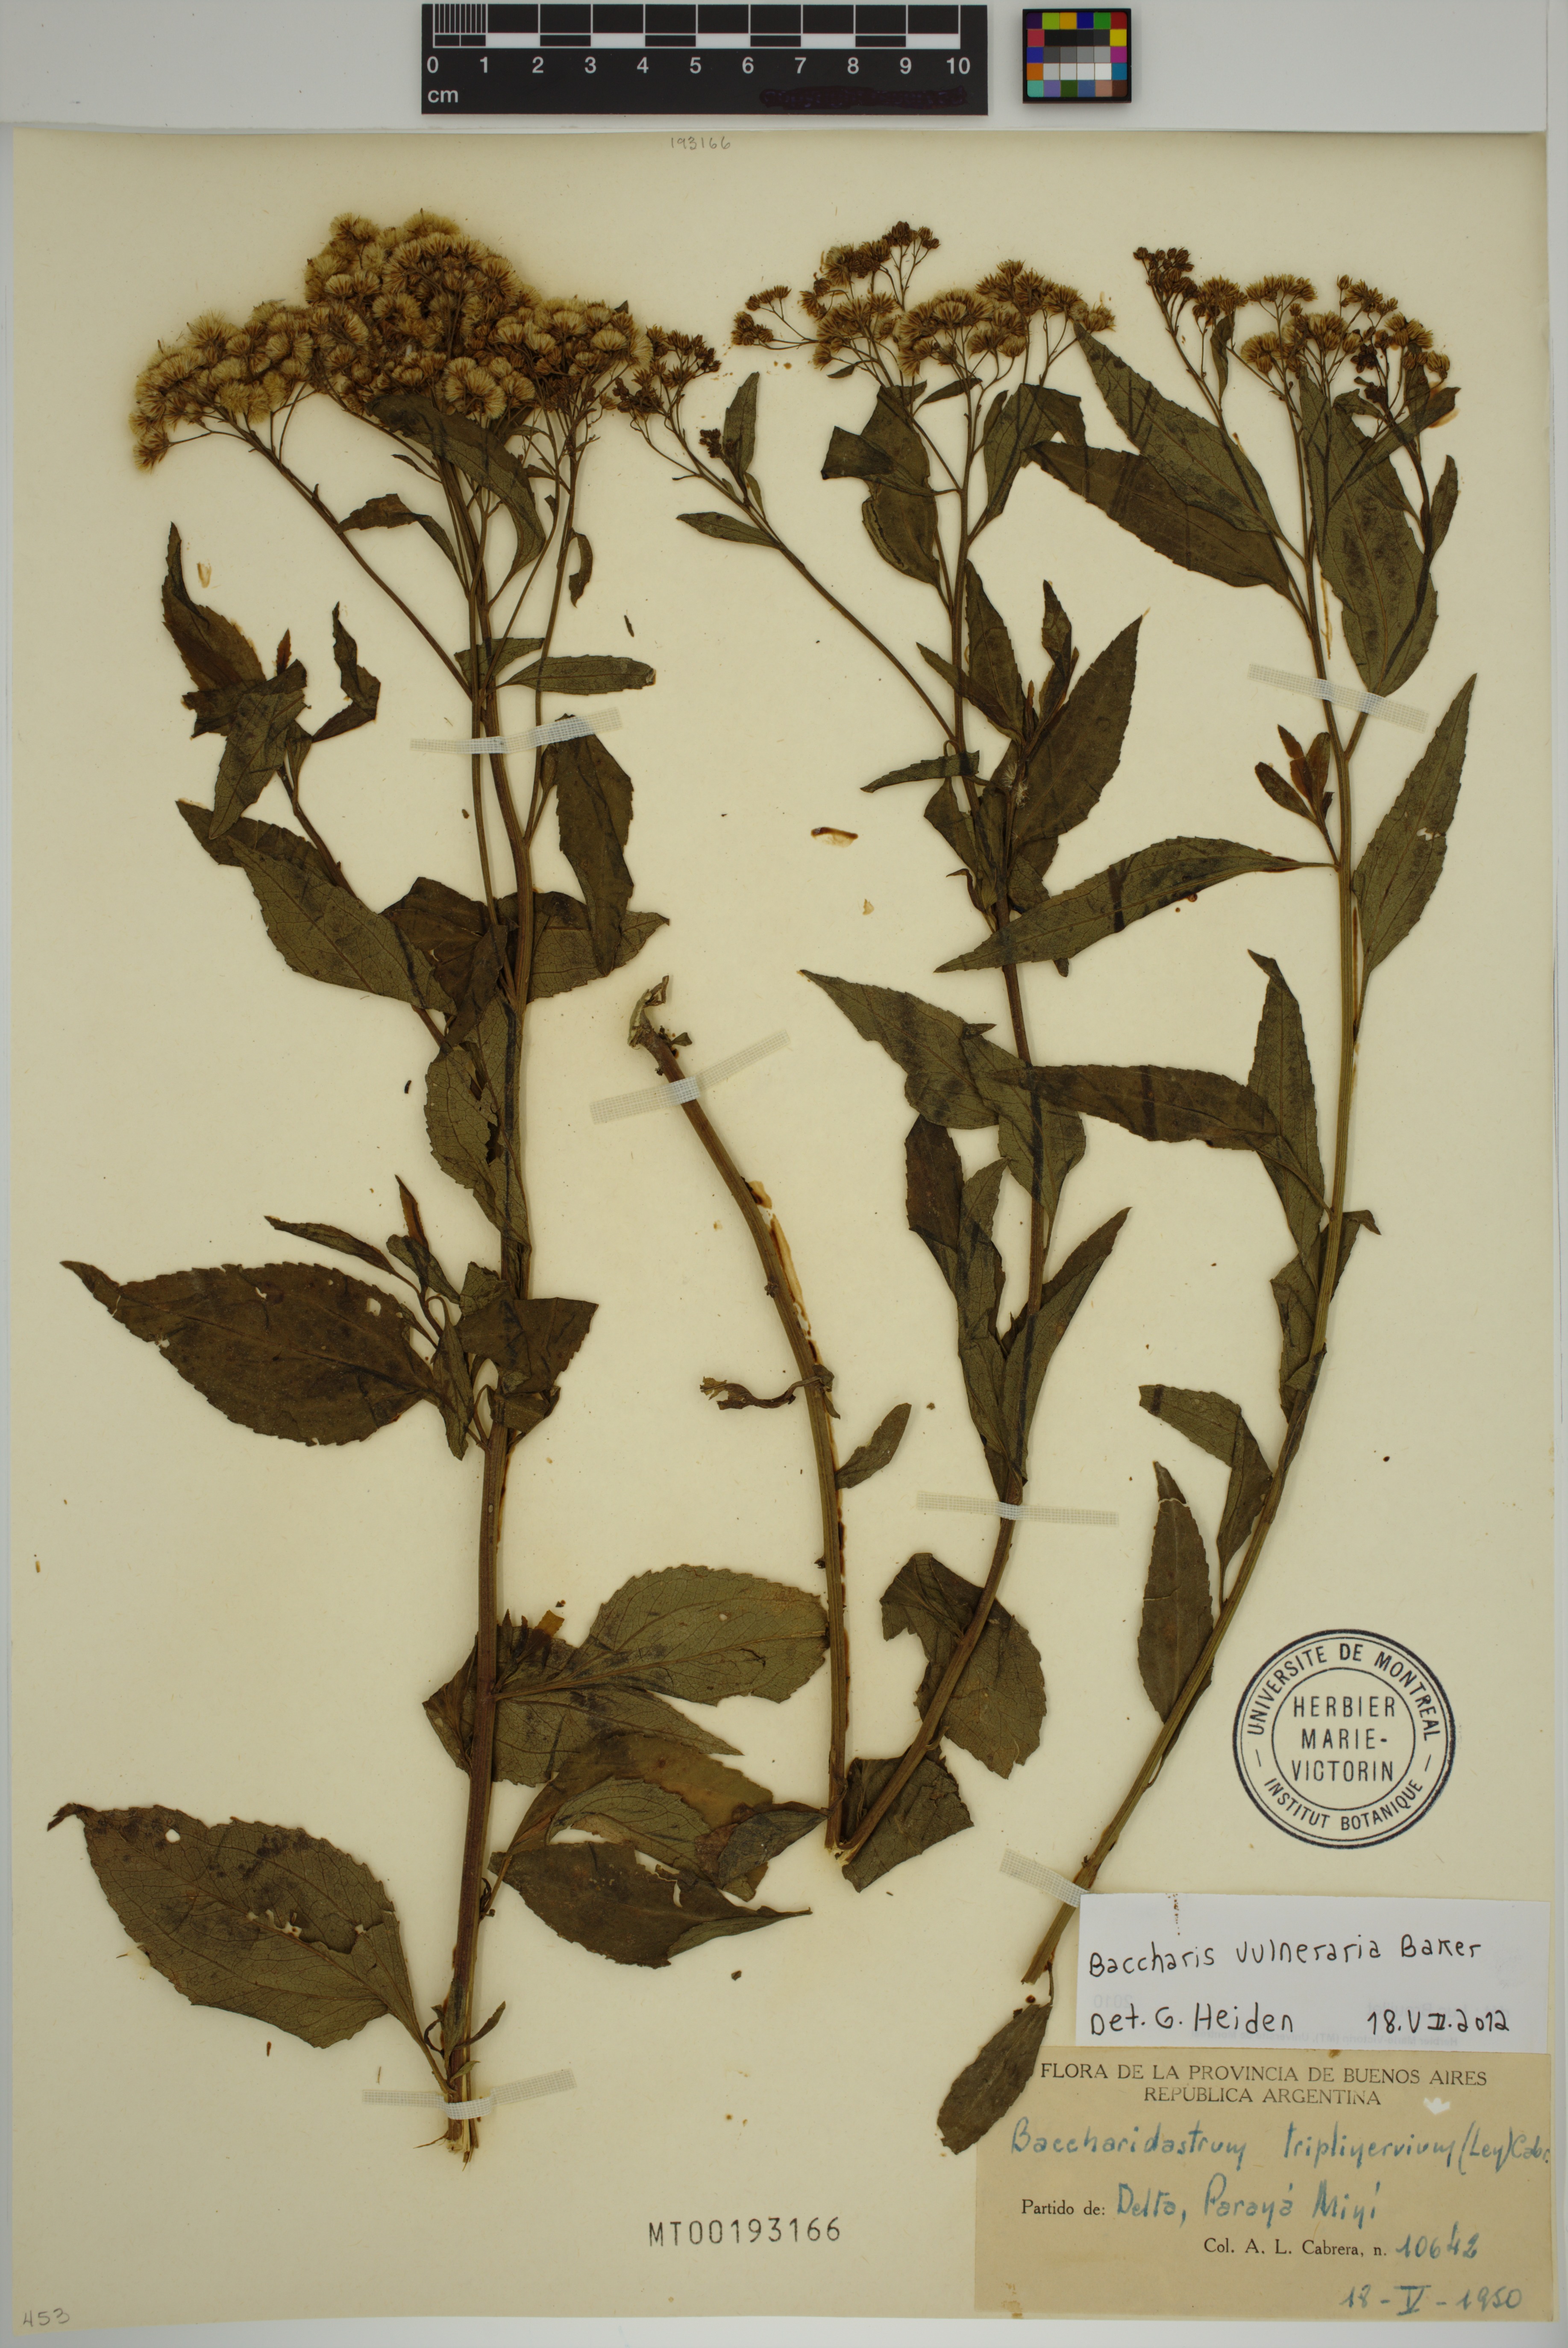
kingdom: Plantae
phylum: Tracheophyta
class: Magnoliopsida
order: Asterales
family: Asteraceae
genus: Archibaccharis
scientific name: Archibaccharis vulneraria
